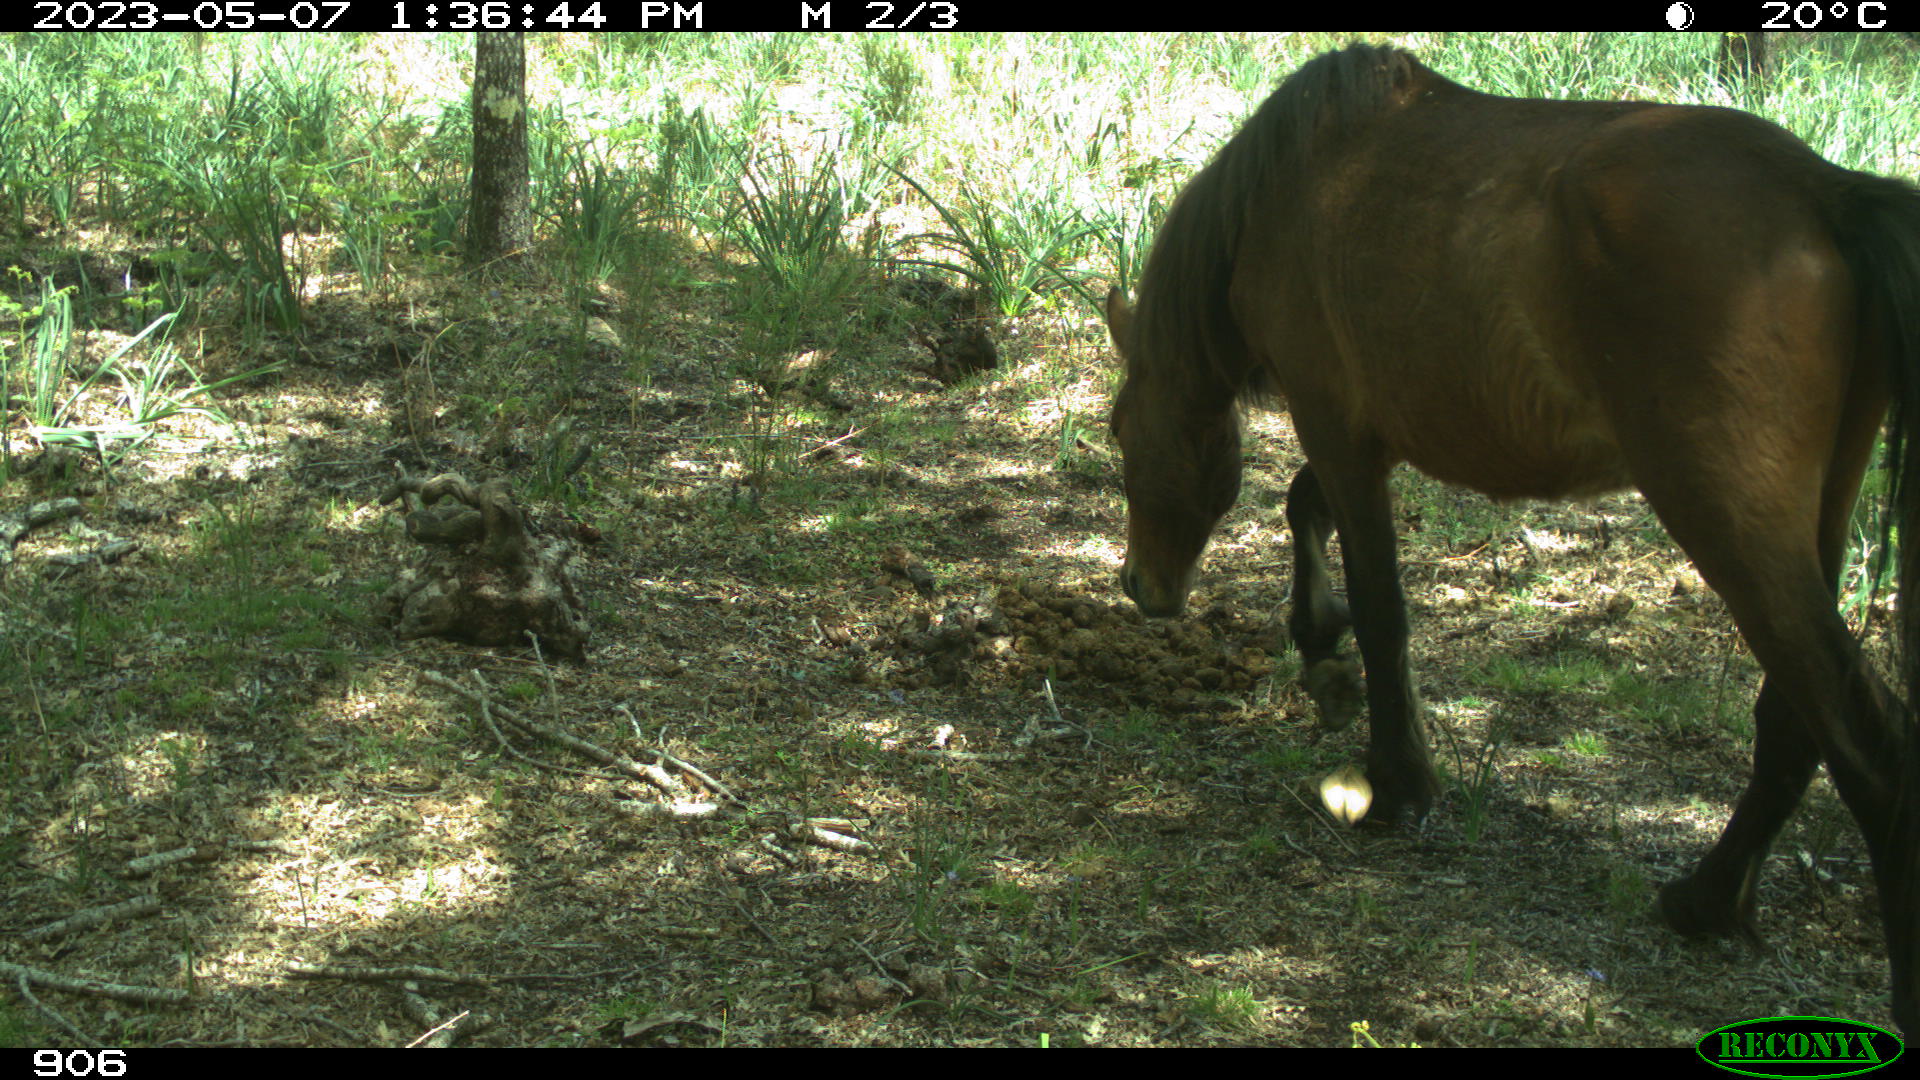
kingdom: Animalia
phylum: Chordata
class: Mammalia
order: Perissodactyla
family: Equidae
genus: Equus
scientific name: Equus caballus
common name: Horse
